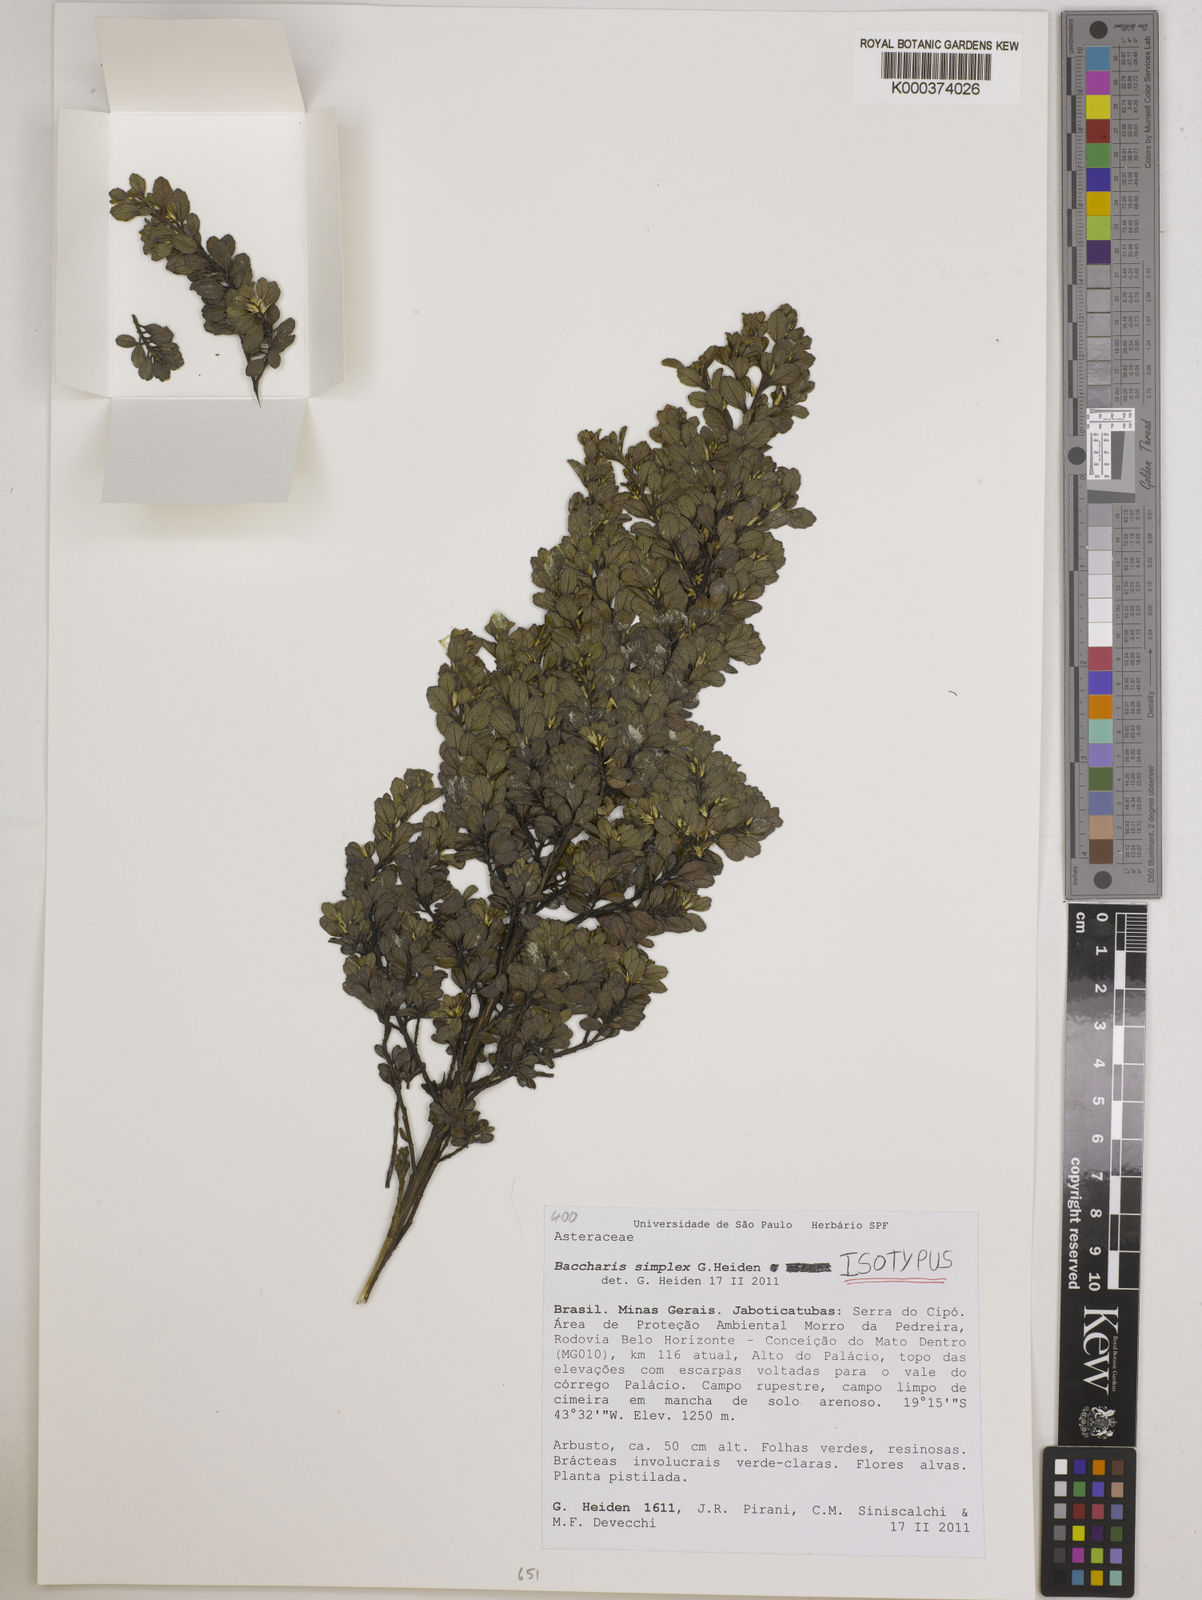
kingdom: Plantae
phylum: Tracheophyta
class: Magnoliopsida
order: Asterales
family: Asteraceae
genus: Baccharis
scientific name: Baccharis simplex
